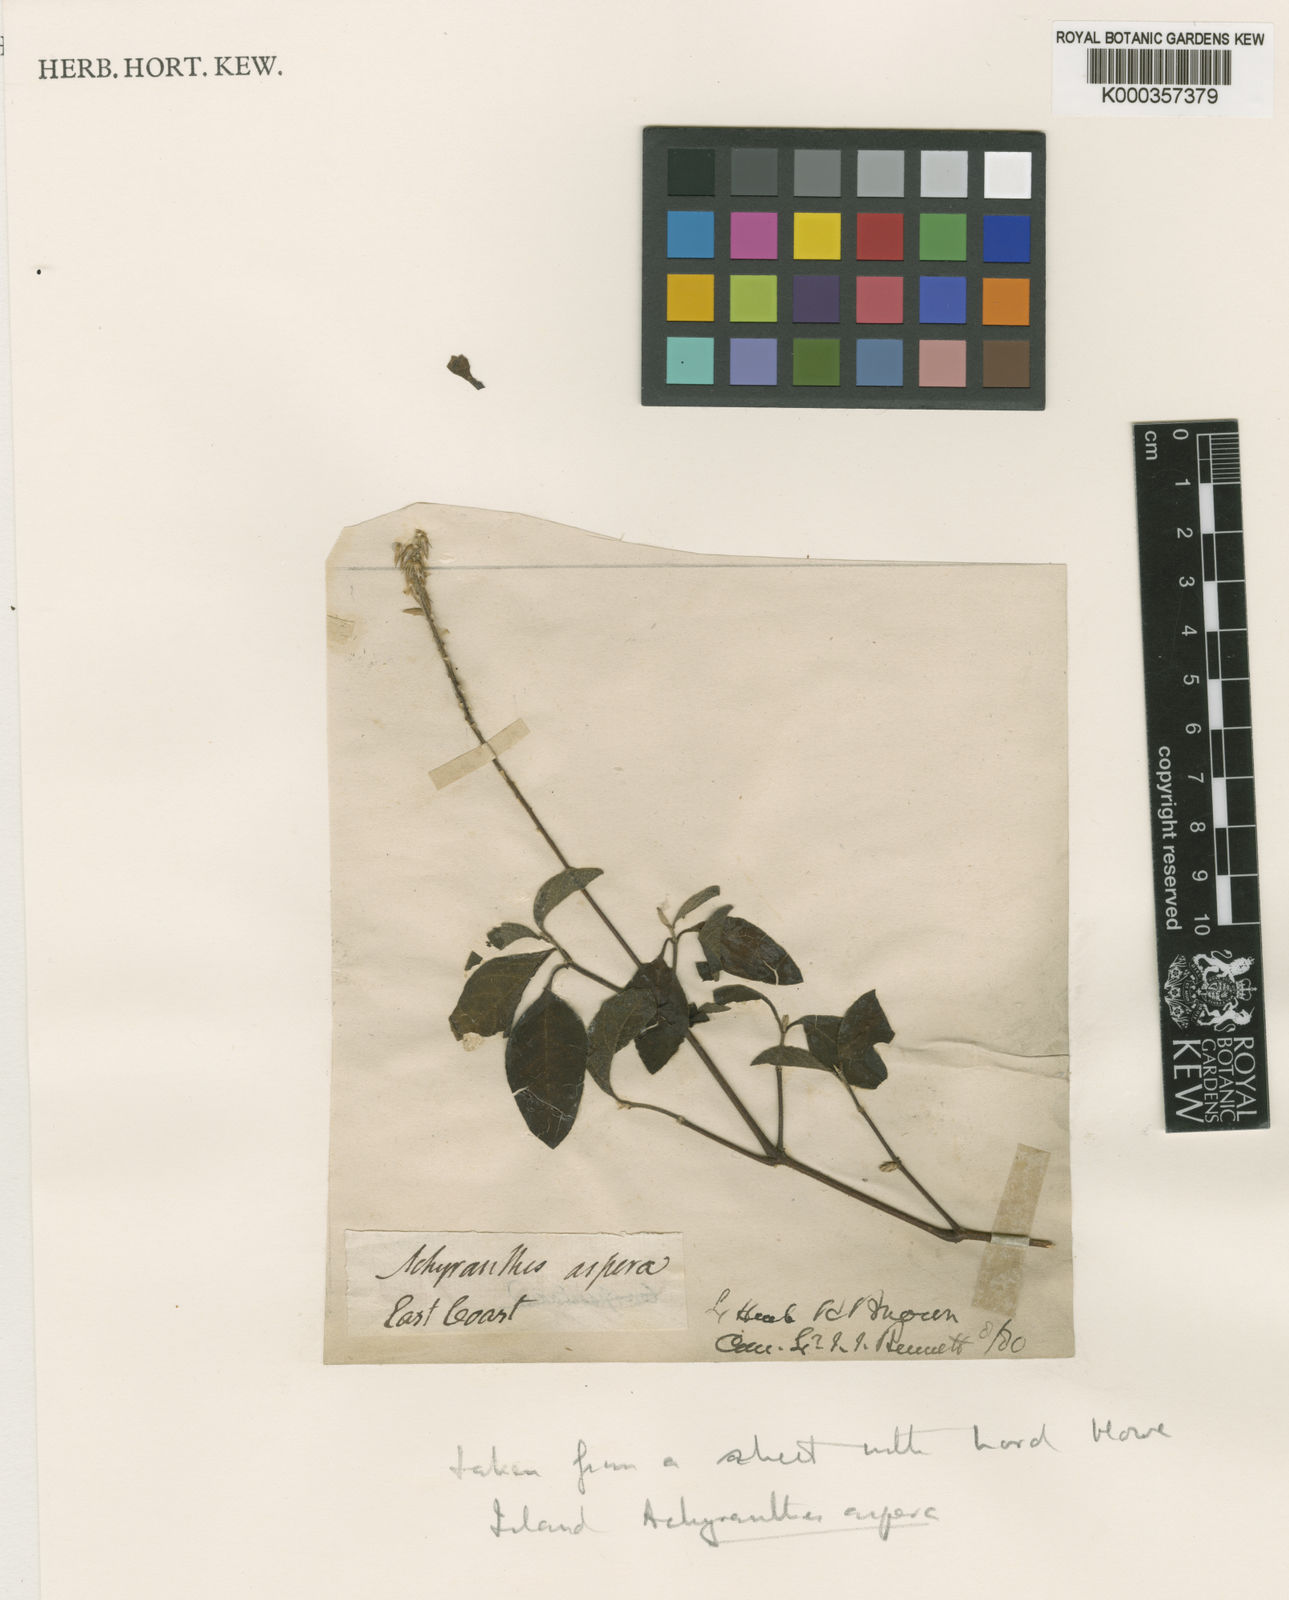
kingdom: Plantae
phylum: Tracheophyta
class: Magnoliopsida
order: Caryophyllales
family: Amaranthaceae
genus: Achyranthes
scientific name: Achyranthes aspera
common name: Devil's horsewhip
